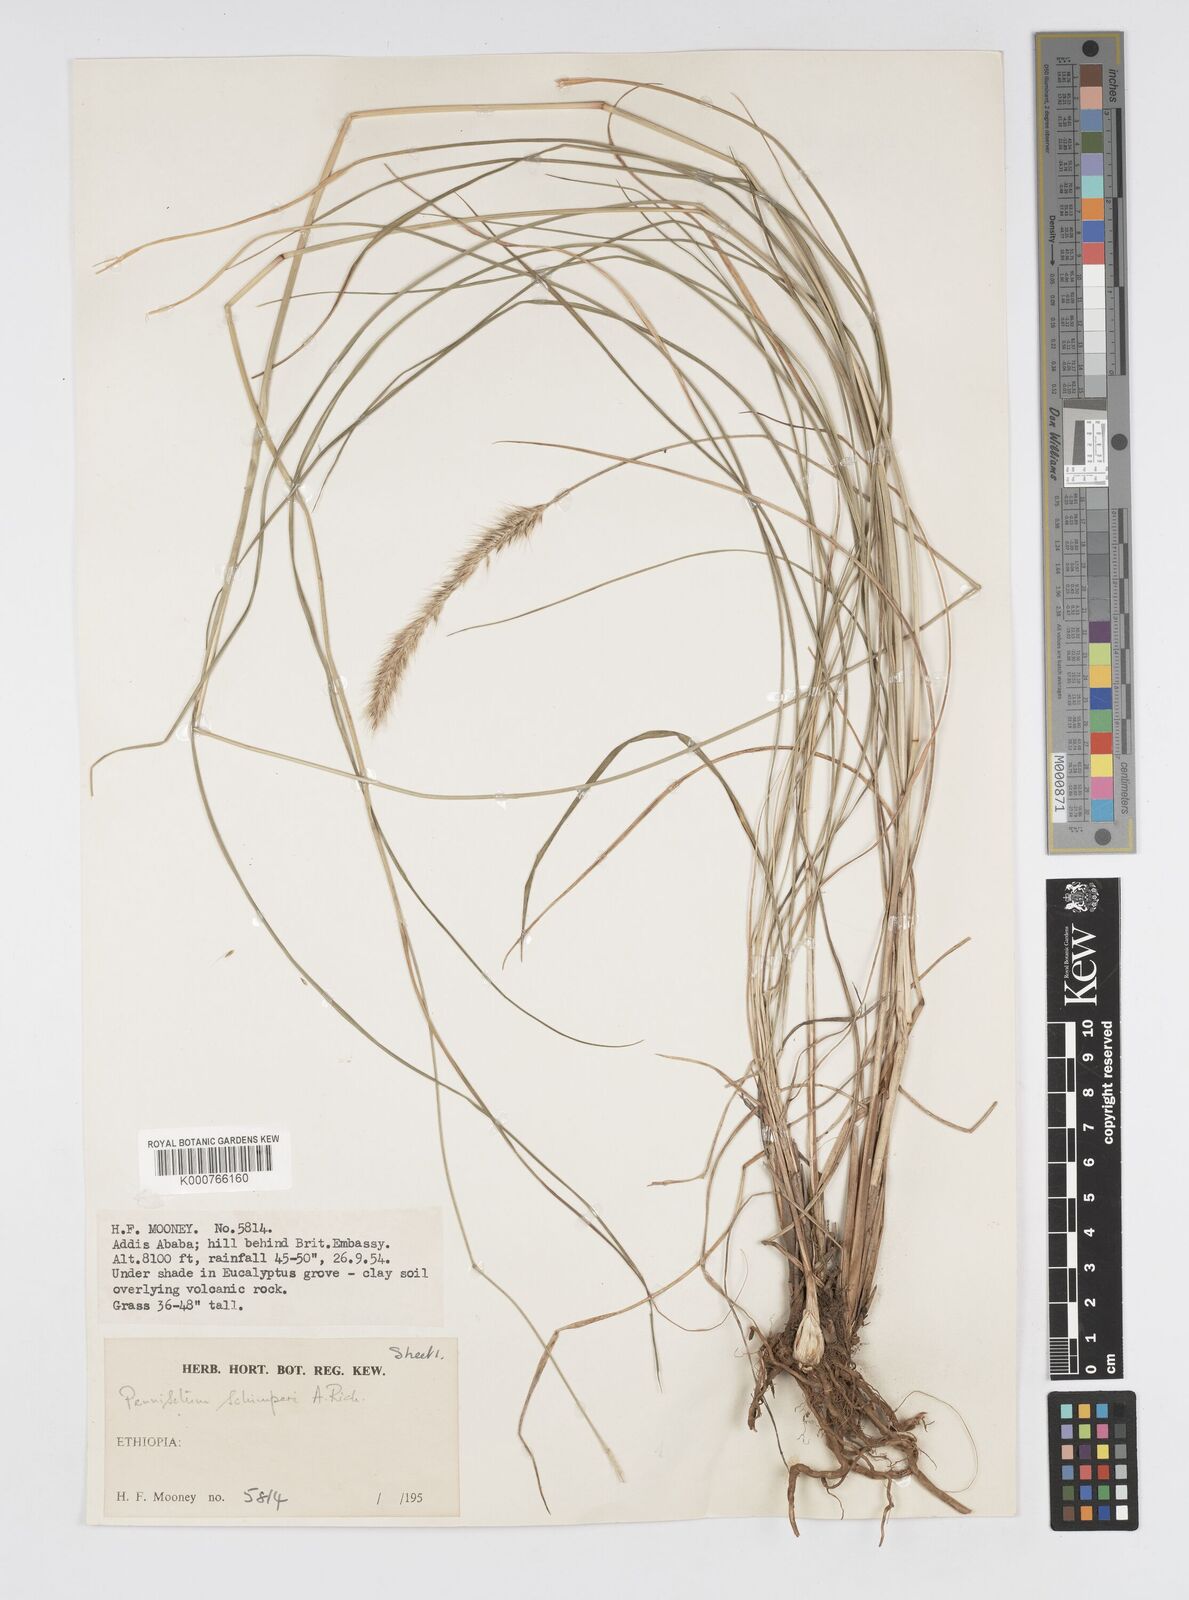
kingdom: Plantae
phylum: Tracheophyta
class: Liliopsida
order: Poales
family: Poaceae
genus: Cenchrus
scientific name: Cenchrus sphacelatus
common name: Bulgras
